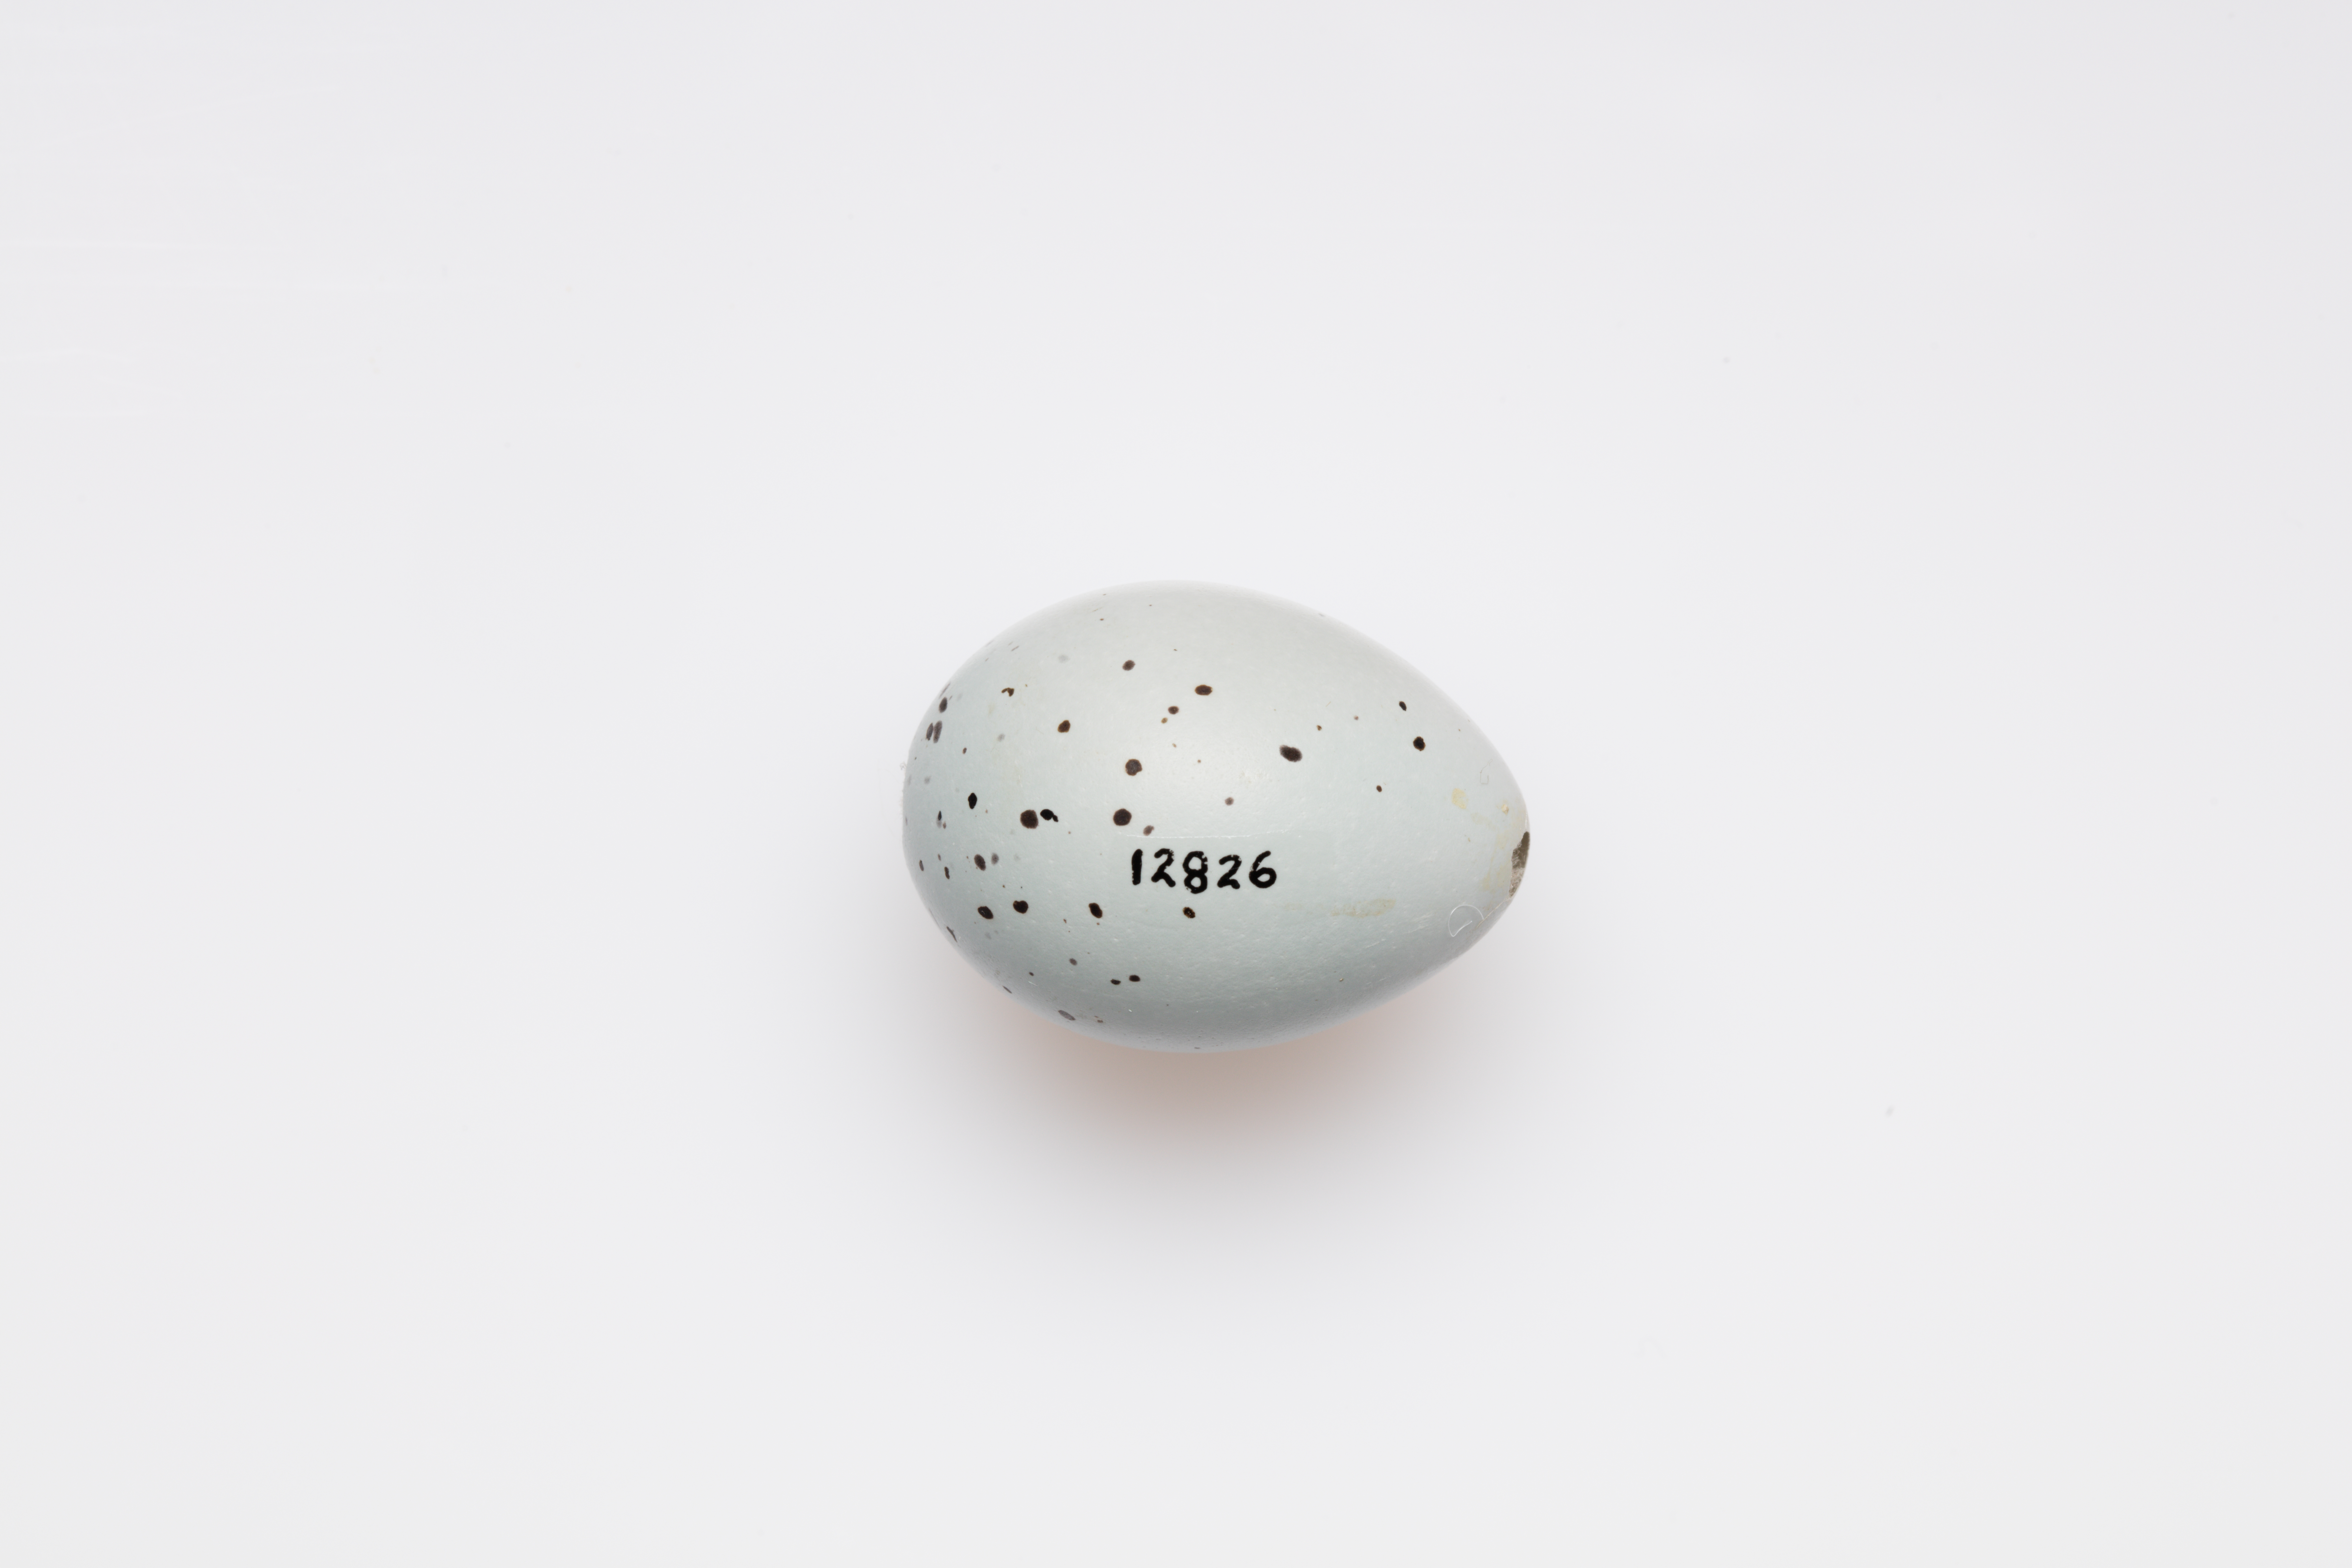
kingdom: Animalia
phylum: Chordata
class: Aves
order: Passeriformes
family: Turdidae
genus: Turdus
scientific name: Turdus philomelos
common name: Song thrush
